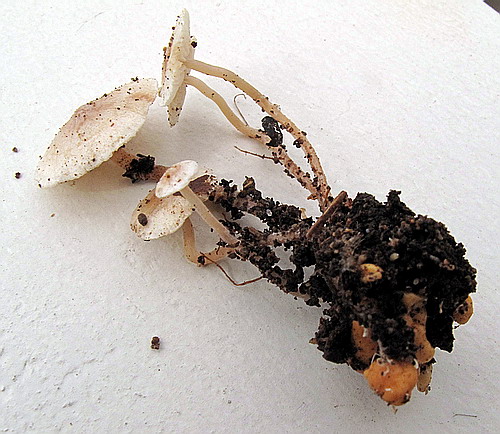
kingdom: Fungi
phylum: Basidiomycota
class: Agaricomycetes
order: Agaricales
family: Tricholomataceae
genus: Collybia
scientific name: Collybia cookei
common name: gulknoldet lighat
